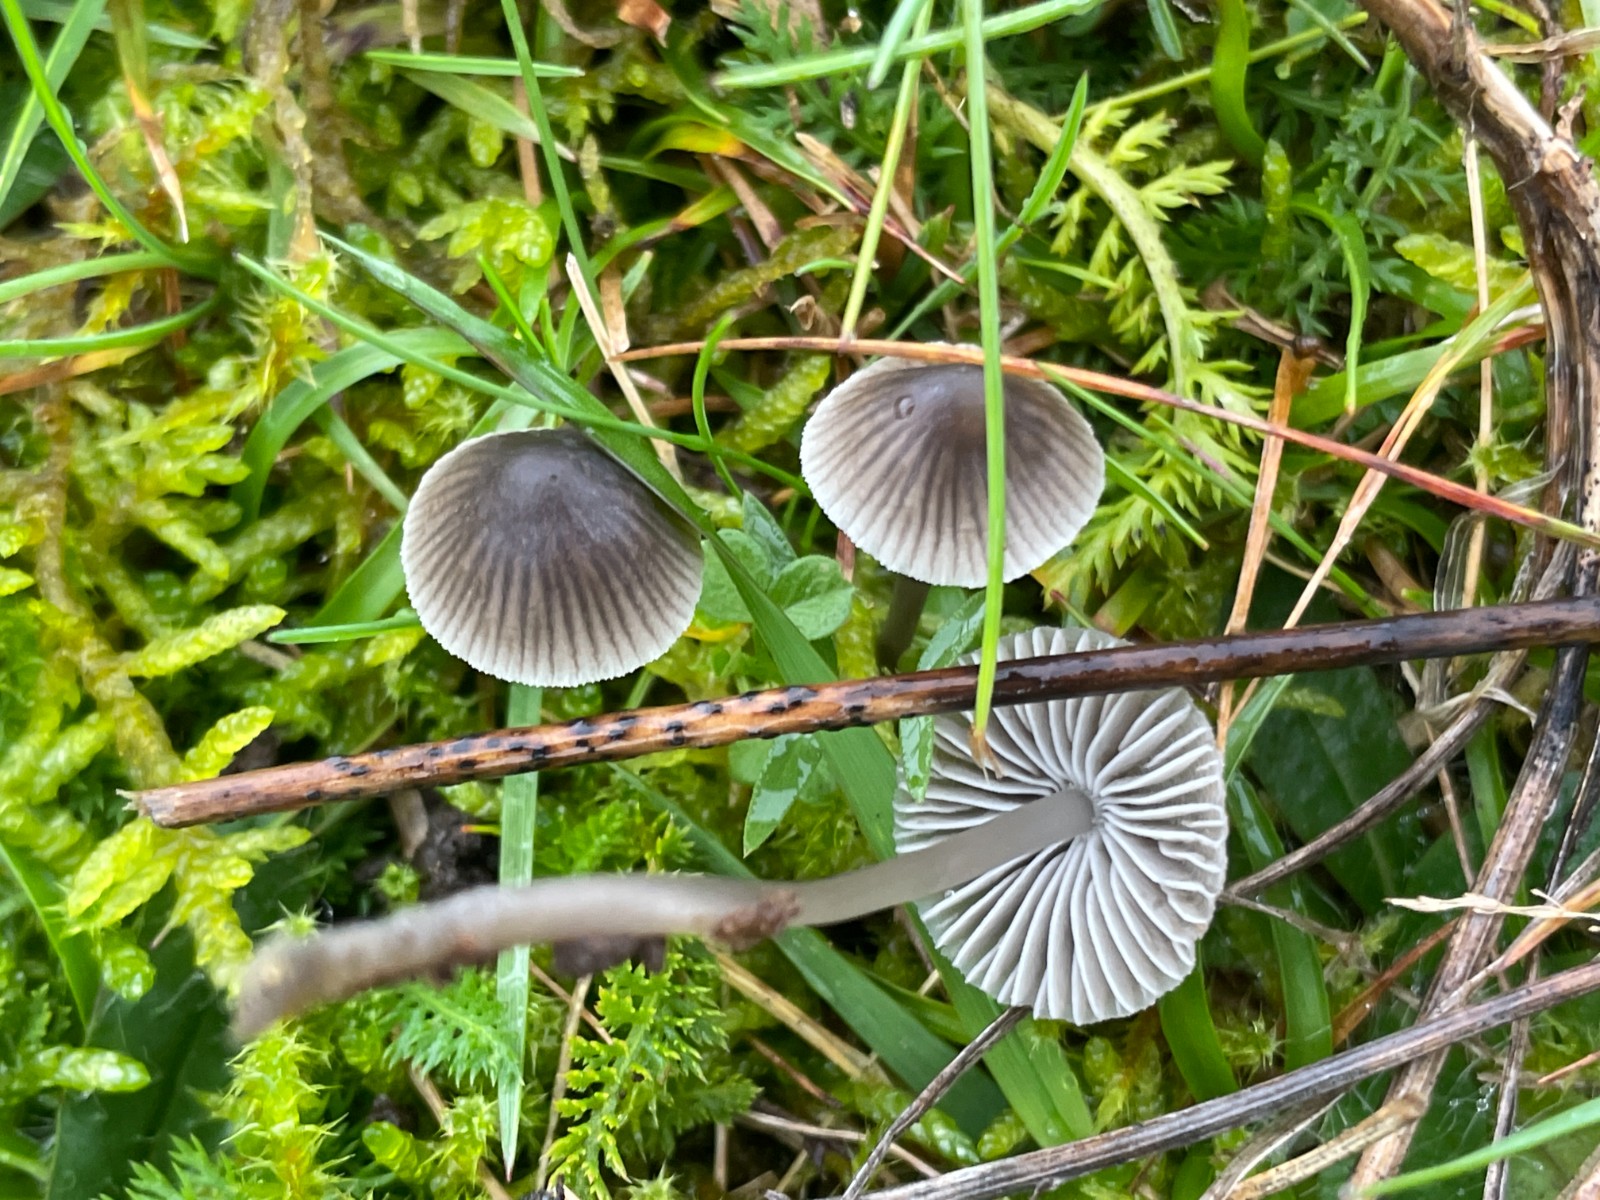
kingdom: Fungi
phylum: Basidiomycota
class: Agaricomycetes
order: Agaricales
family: Mycenaceae
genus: Mycena
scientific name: Mycena aetites
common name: plæne-huesvamp
